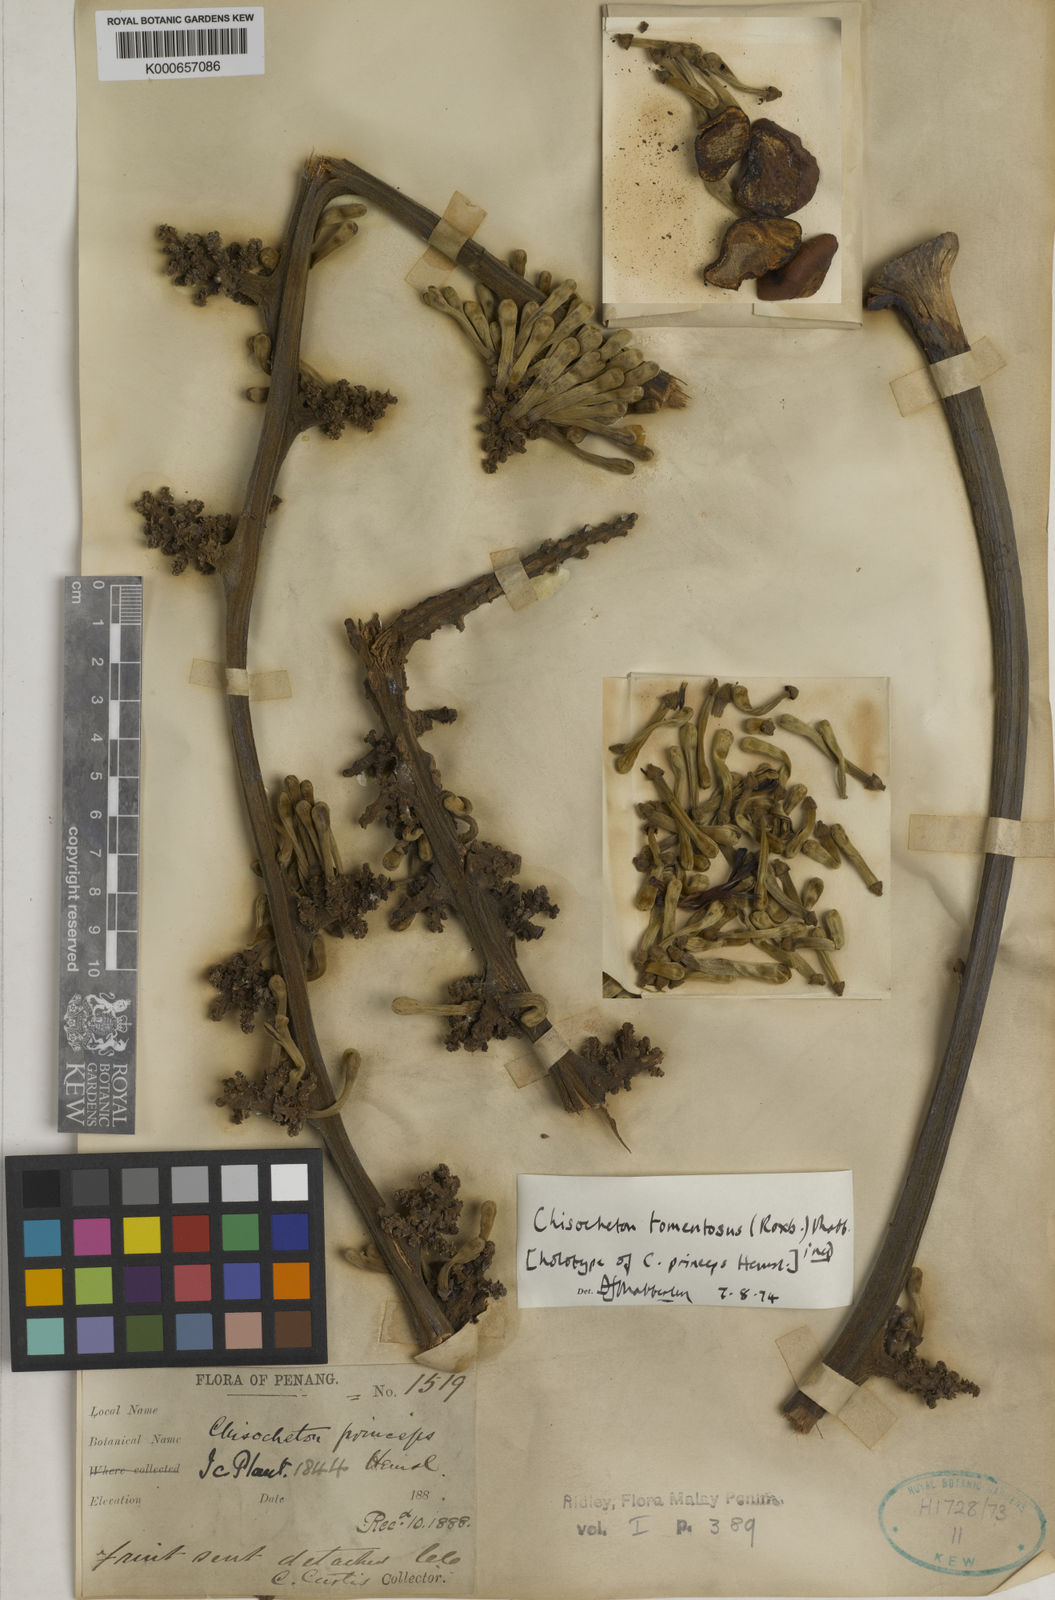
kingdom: Plantae
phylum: Tracheophyta
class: Magnoliopsida
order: Sapindales
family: Meliaceae
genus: Chisocheton
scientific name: Chisocheton tomentosus
